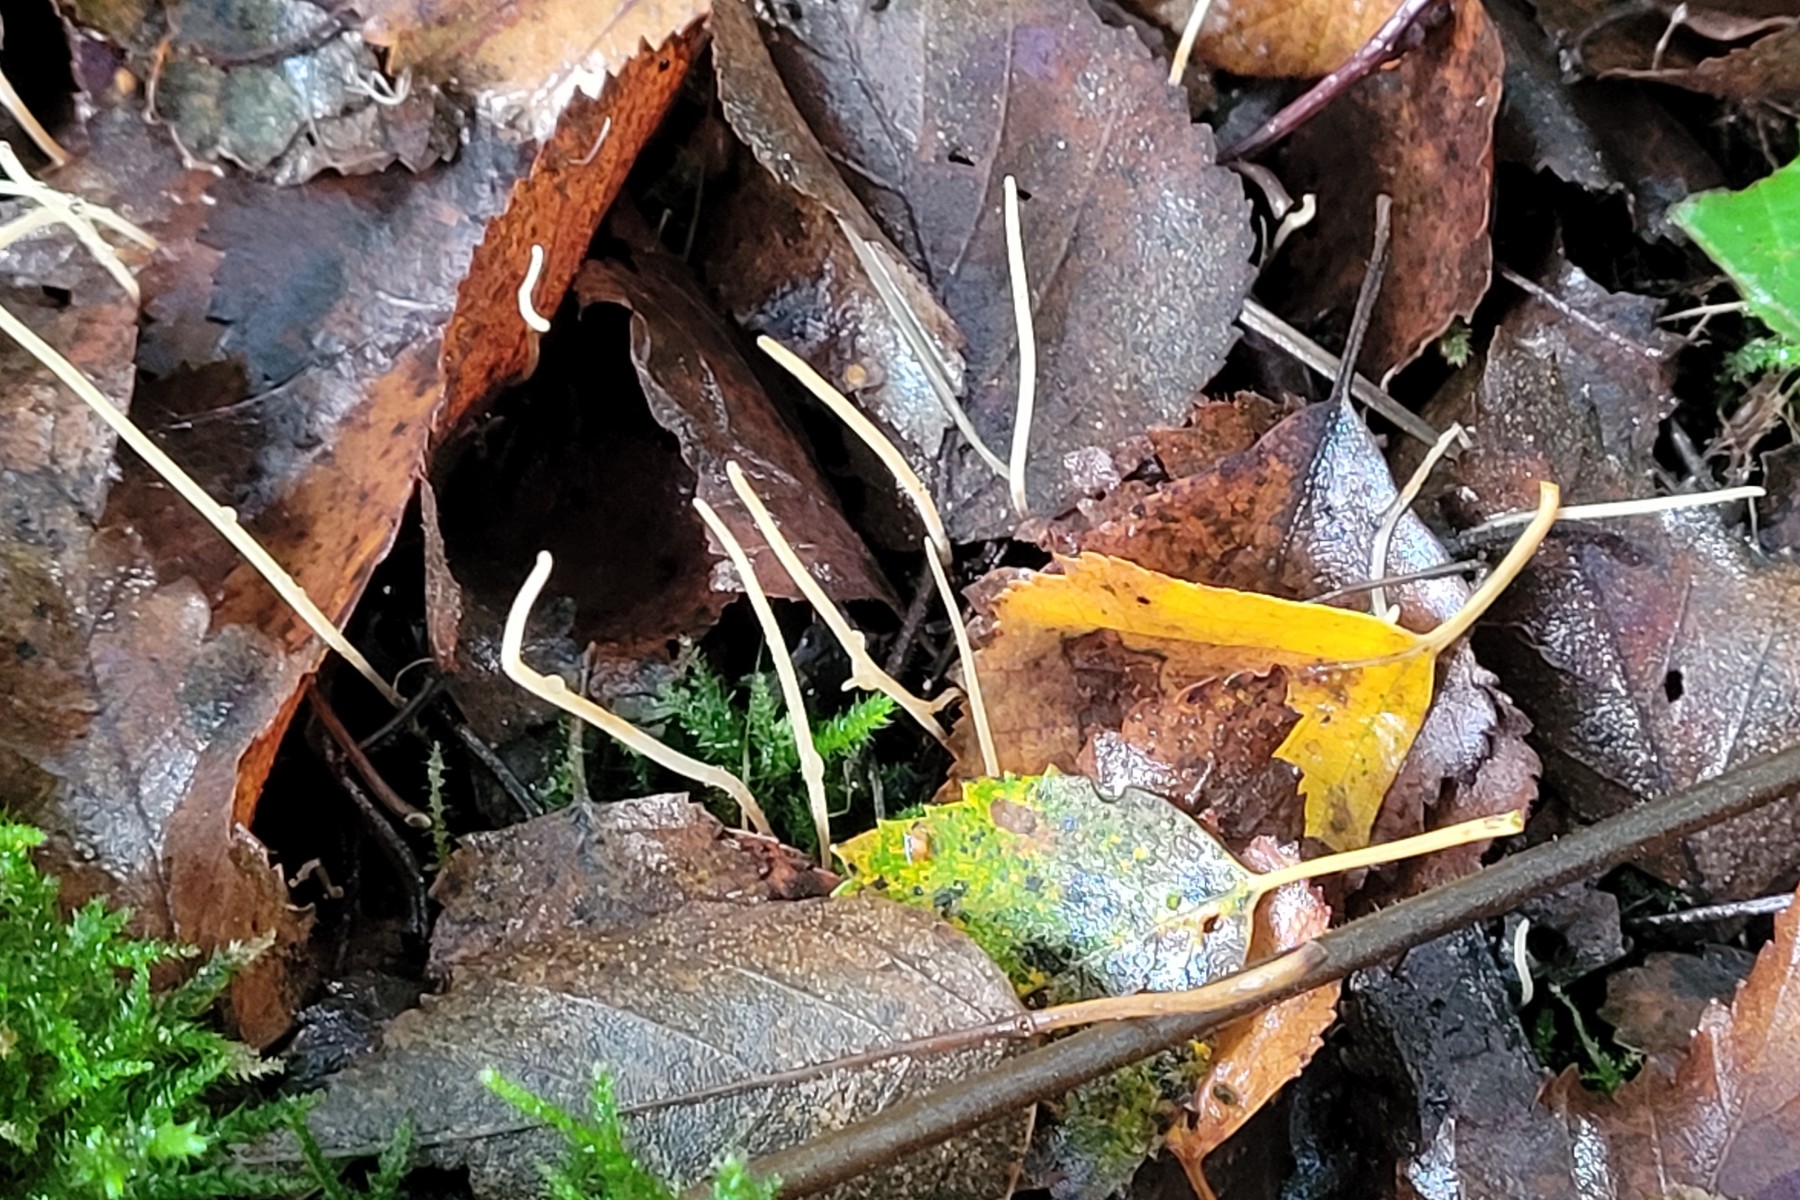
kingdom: Fungi
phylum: Basidiomycota
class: Agaricomycetes
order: Agaricales
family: Typhulaceae
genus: Typhula
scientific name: Typhula juncea
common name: trådagtig rørkølle
